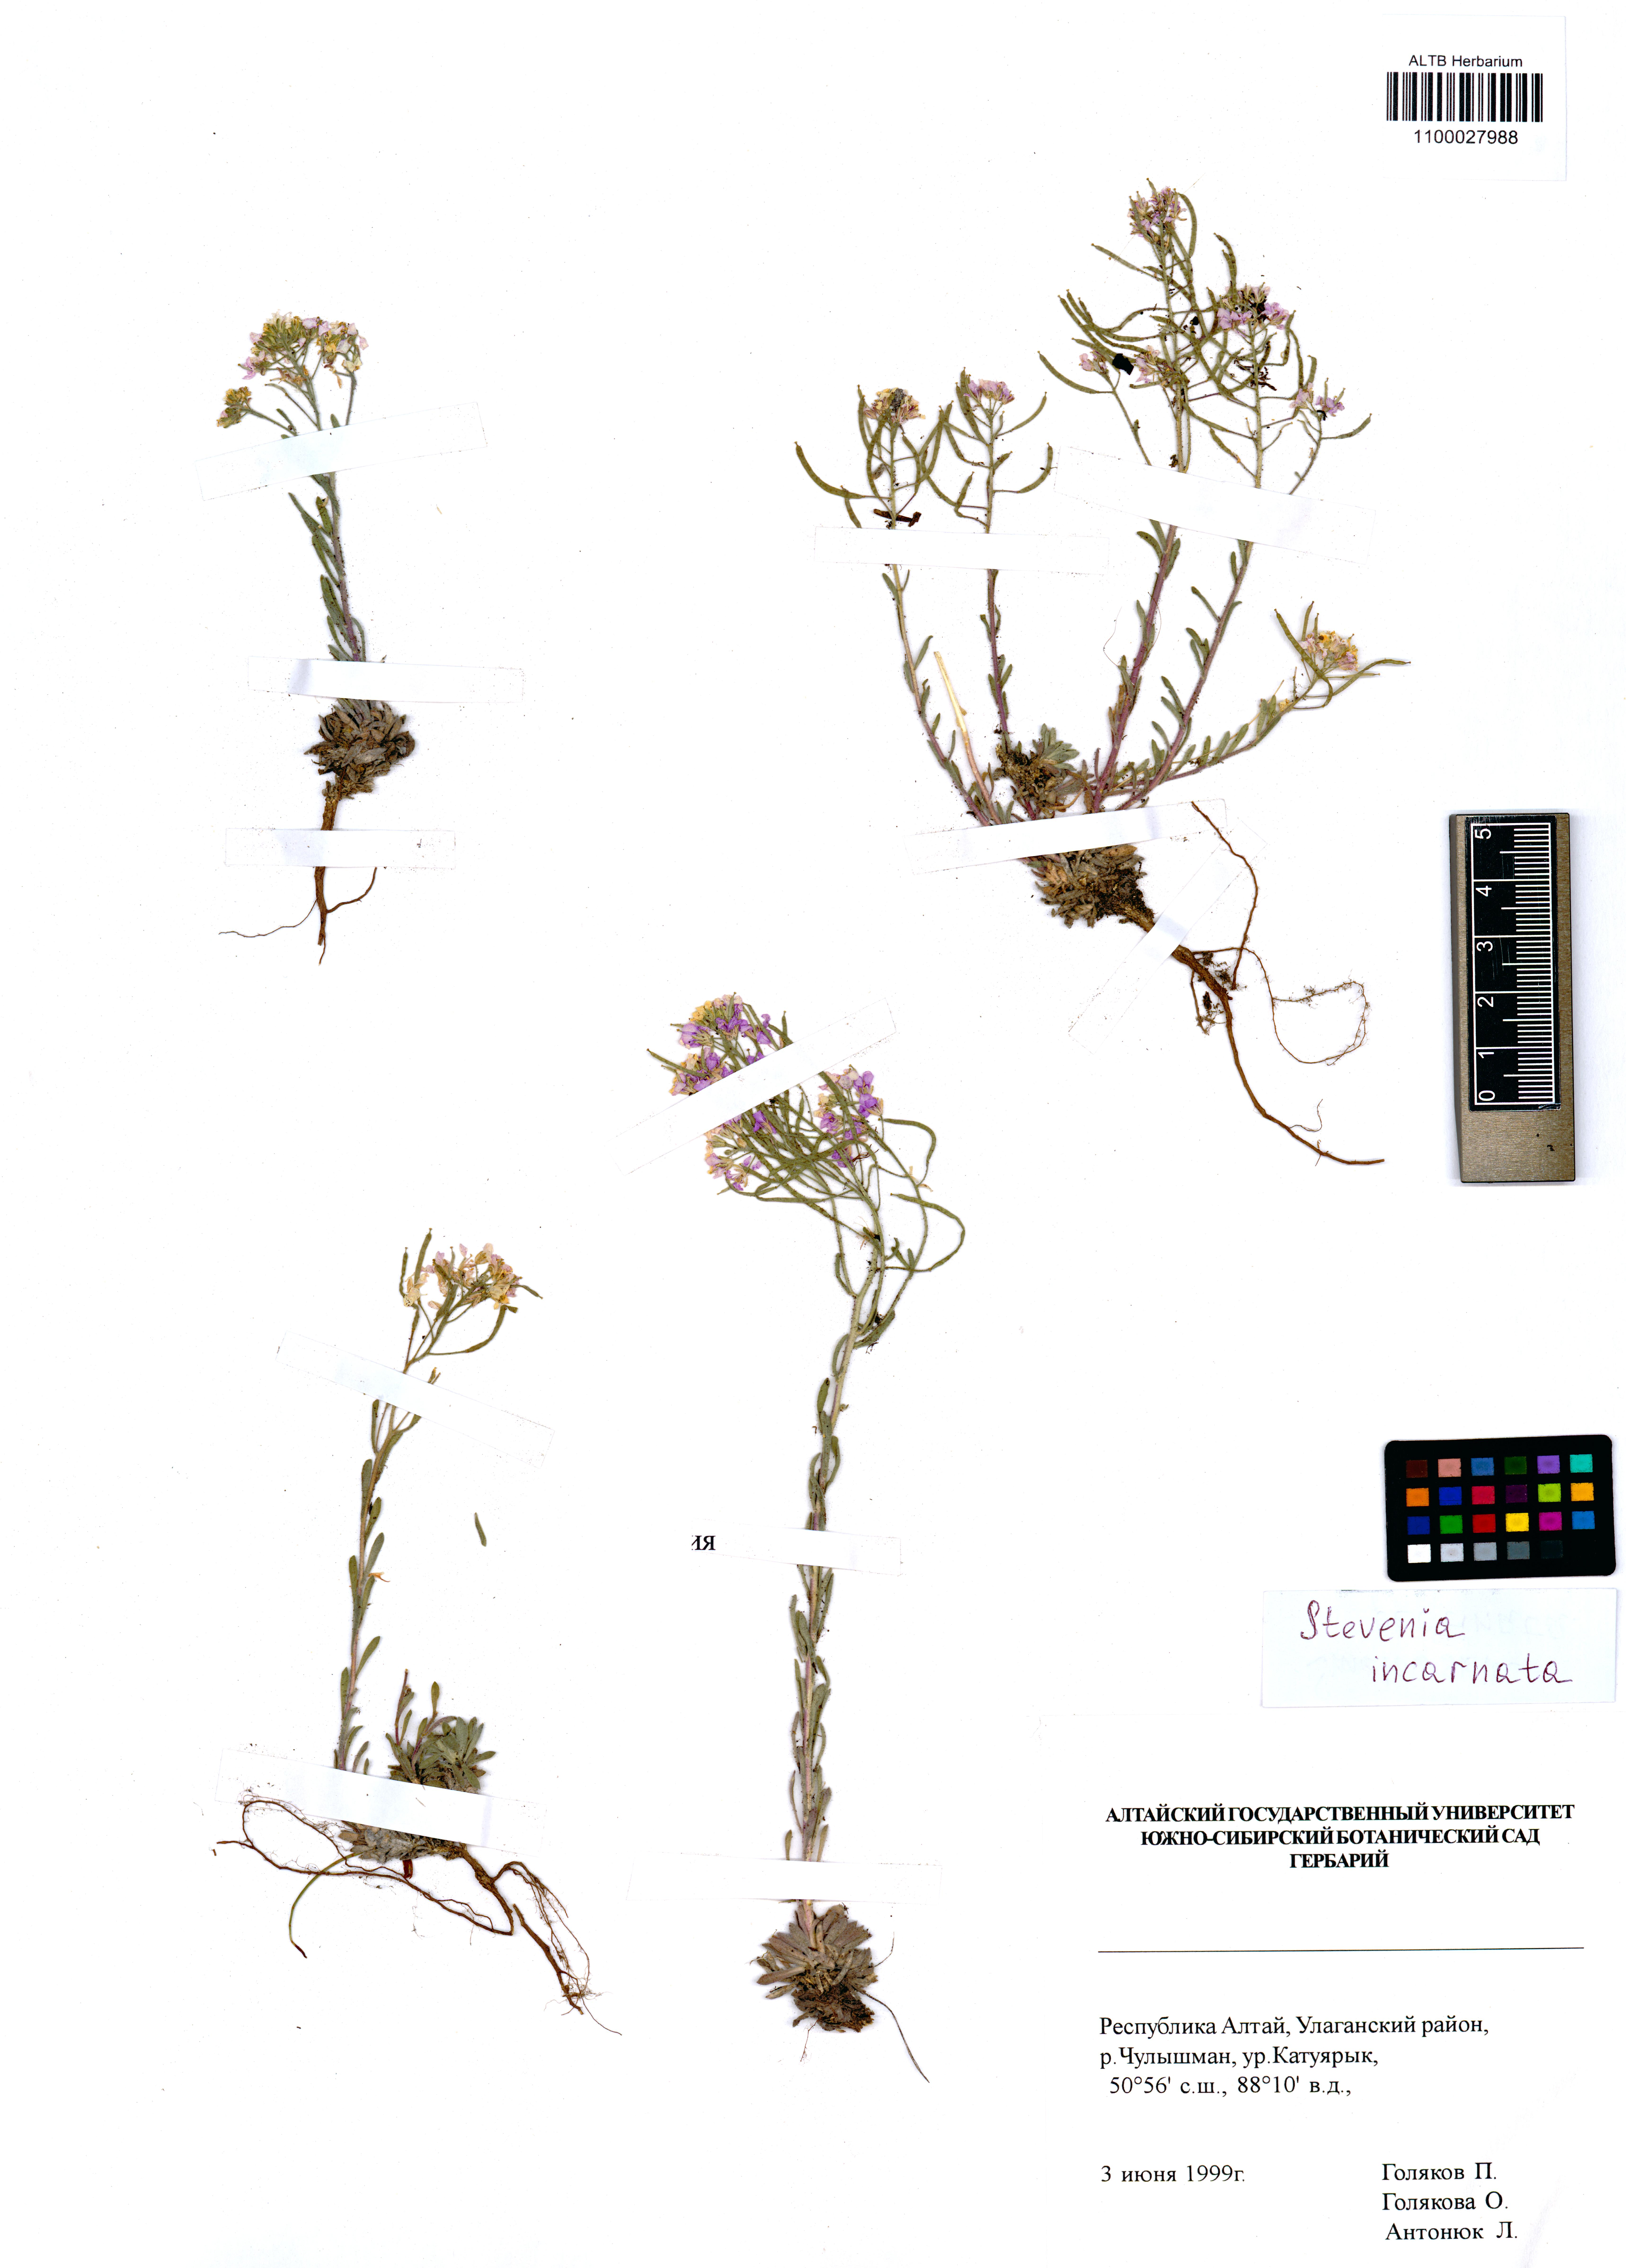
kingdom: Plantae
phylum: Tracheophyta
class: Magnoliopsida
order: Brassicales
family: Brassicaceae
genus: Stevenia
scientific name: Stevenia incarnata
